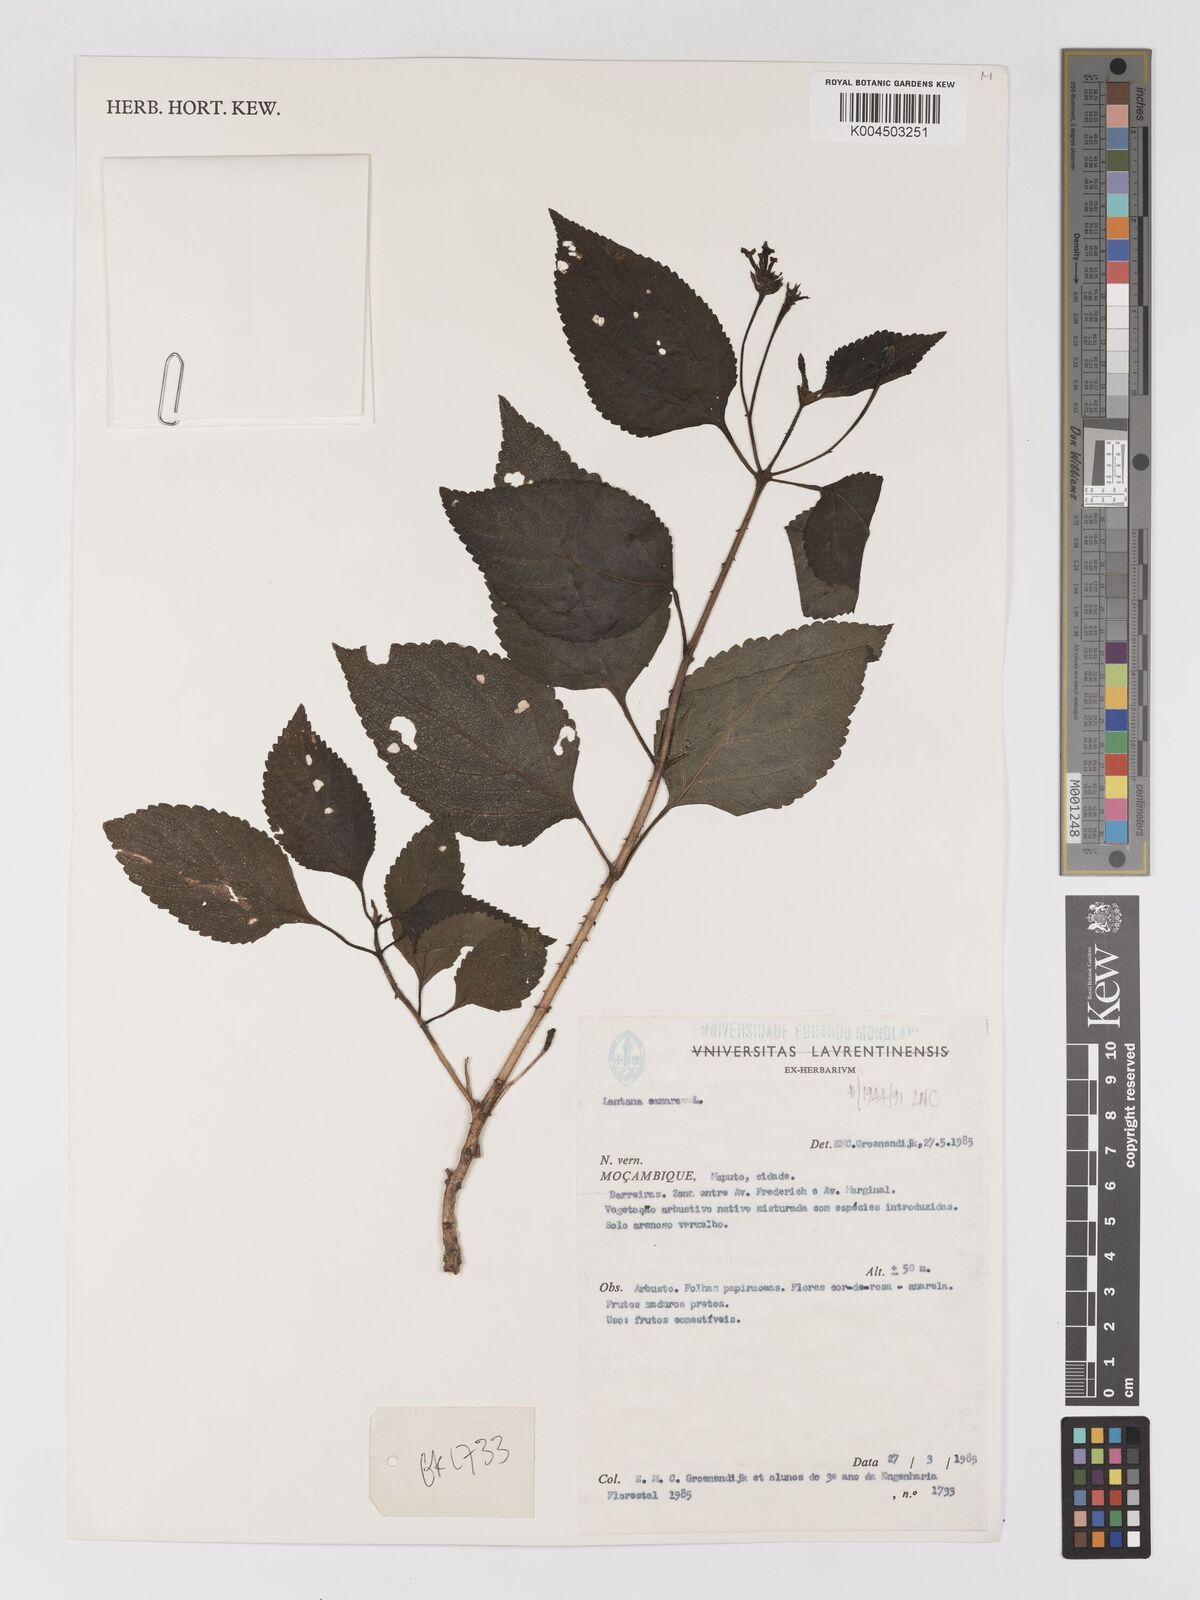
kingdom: Plantae
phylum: Tracheophyta
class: Magnoliopsida
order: Lamiales
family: Verbenaceae
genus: Lantana
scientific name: Lantana camara
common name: Lantana
